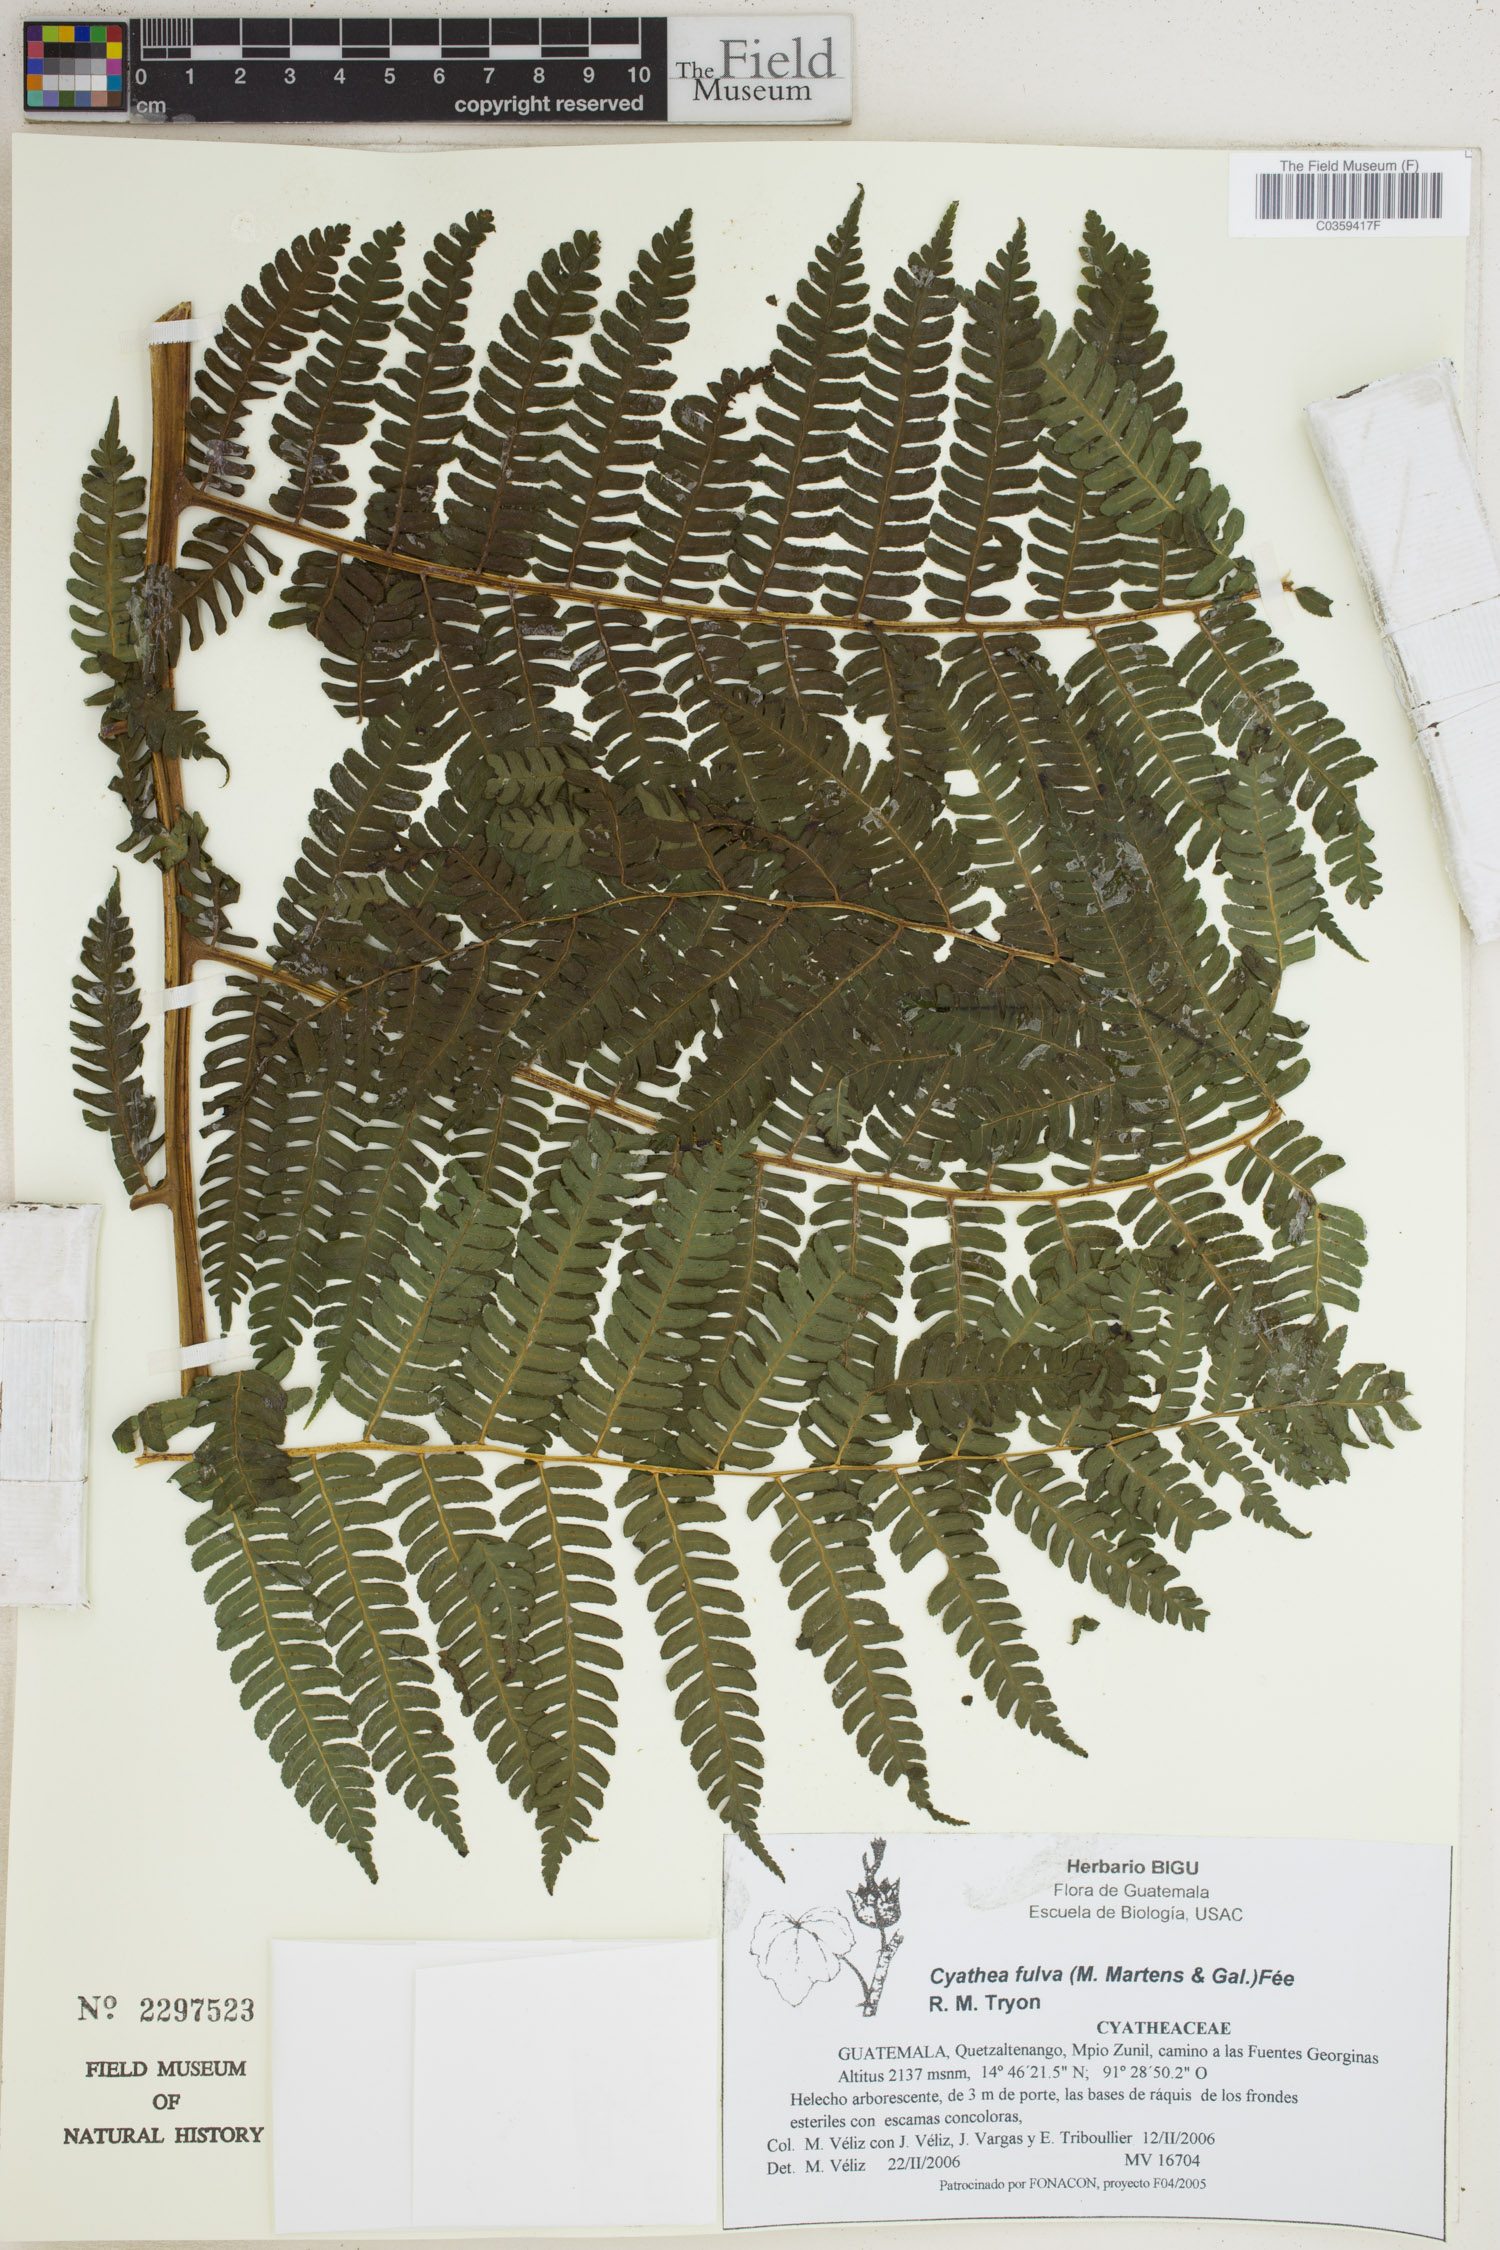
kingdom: Plantae
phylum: Tracheophyta
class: Polypodiopsida
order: Cyatheales
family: Cyatheaceae
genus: Cyathea
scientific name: Cyathea fulva
